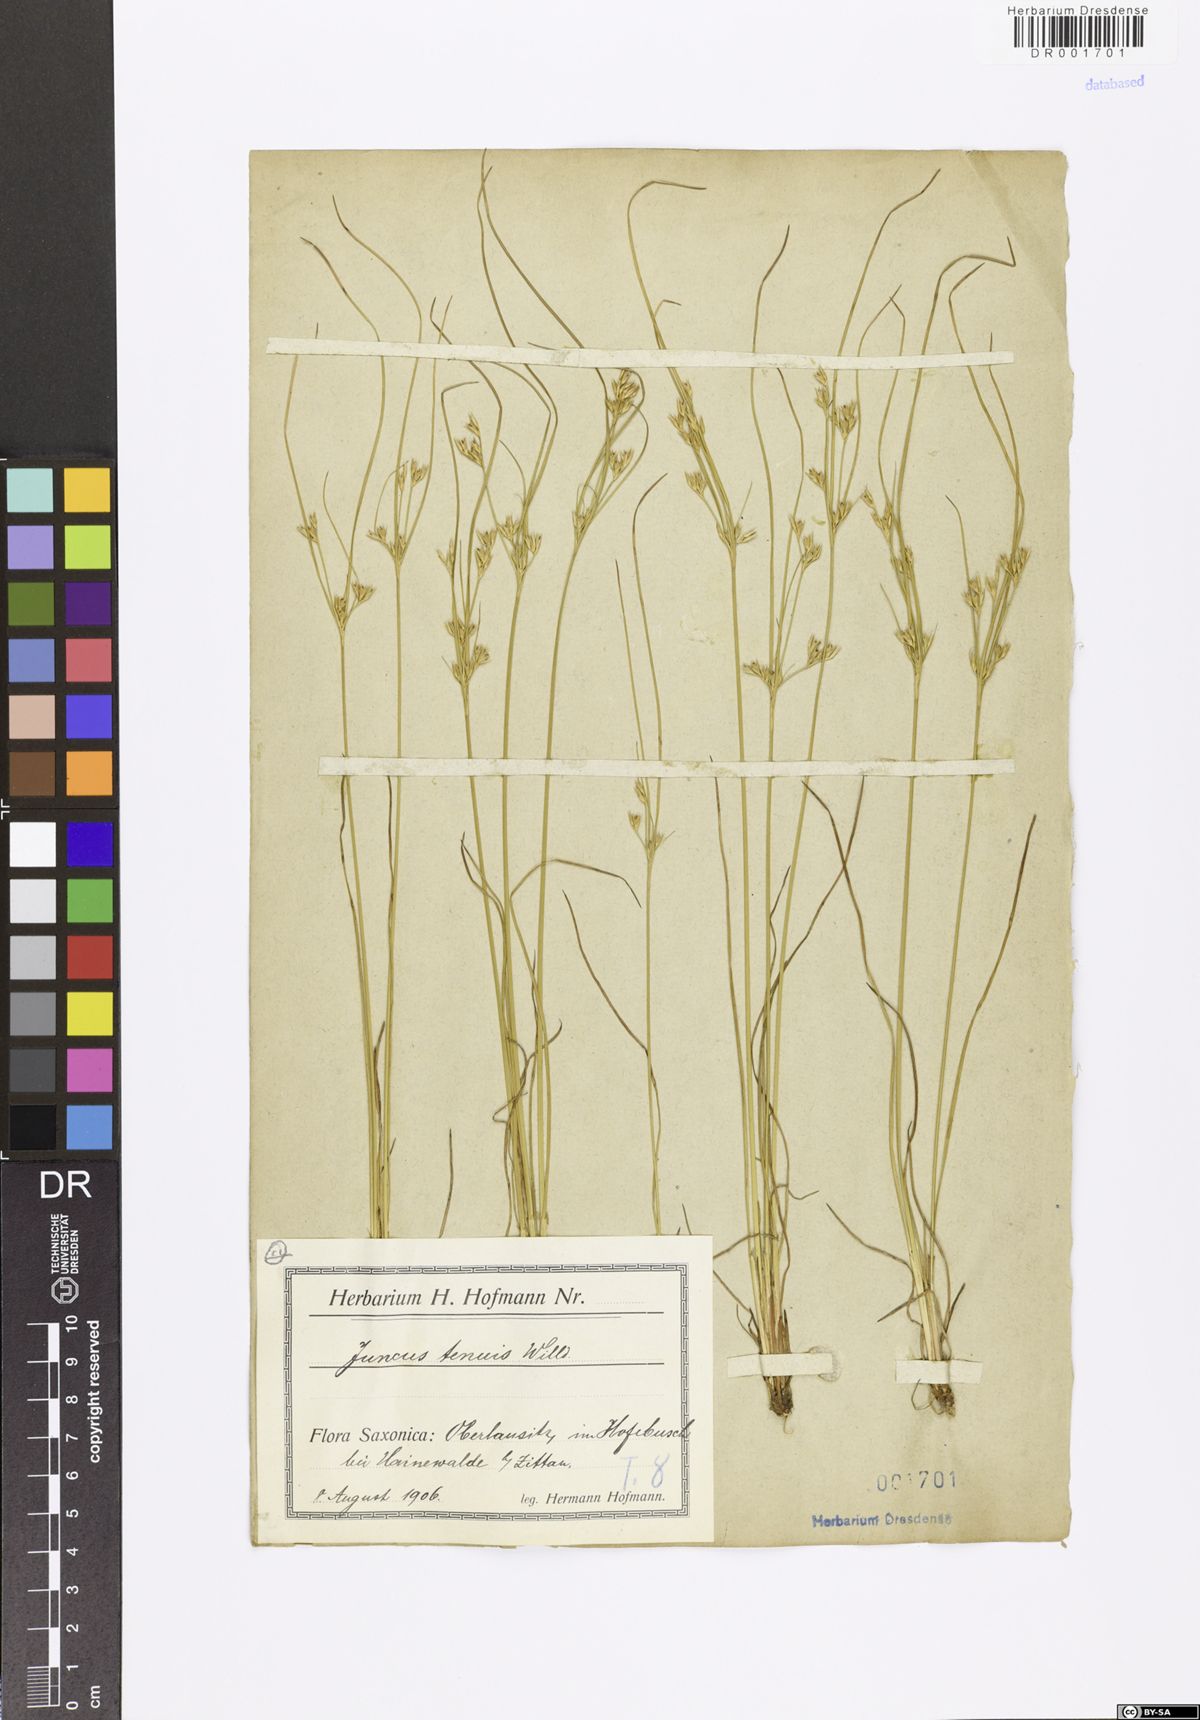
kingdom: Plantae
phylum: Tracheophyta
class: Liliopsida
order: Poales
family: Juncaceae
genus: Juncus
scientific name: Juncus tenuis
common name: Slender rush
